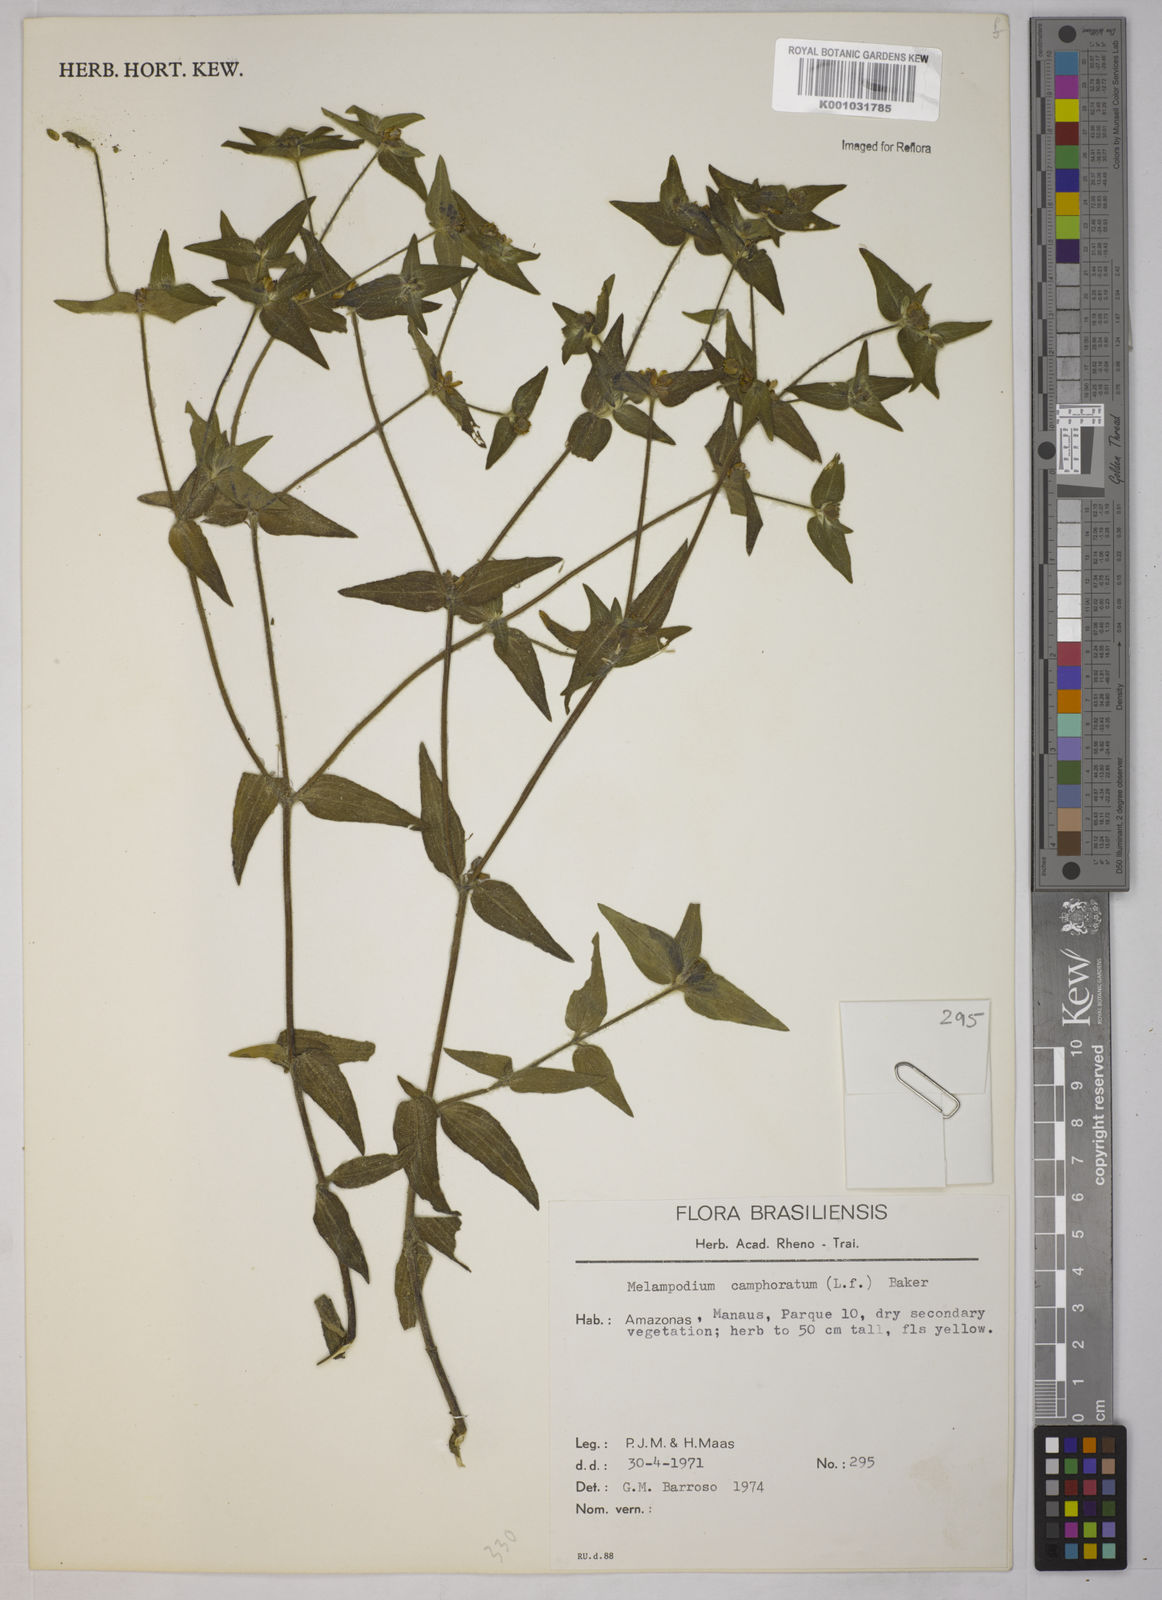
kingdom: Plantae
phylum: Tracheophyta
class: Magnoliopsida
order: Asterales
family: Asteraceae
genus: Unxia
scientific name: Unxia camphorata
